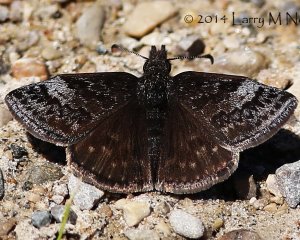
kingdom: Animalia
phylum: Arthropoda
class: Insecta
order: Lepidoptera
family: Hesperiidae
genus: Erynnis
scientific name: Erynnis icelus
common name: Dreamy Duskywing
